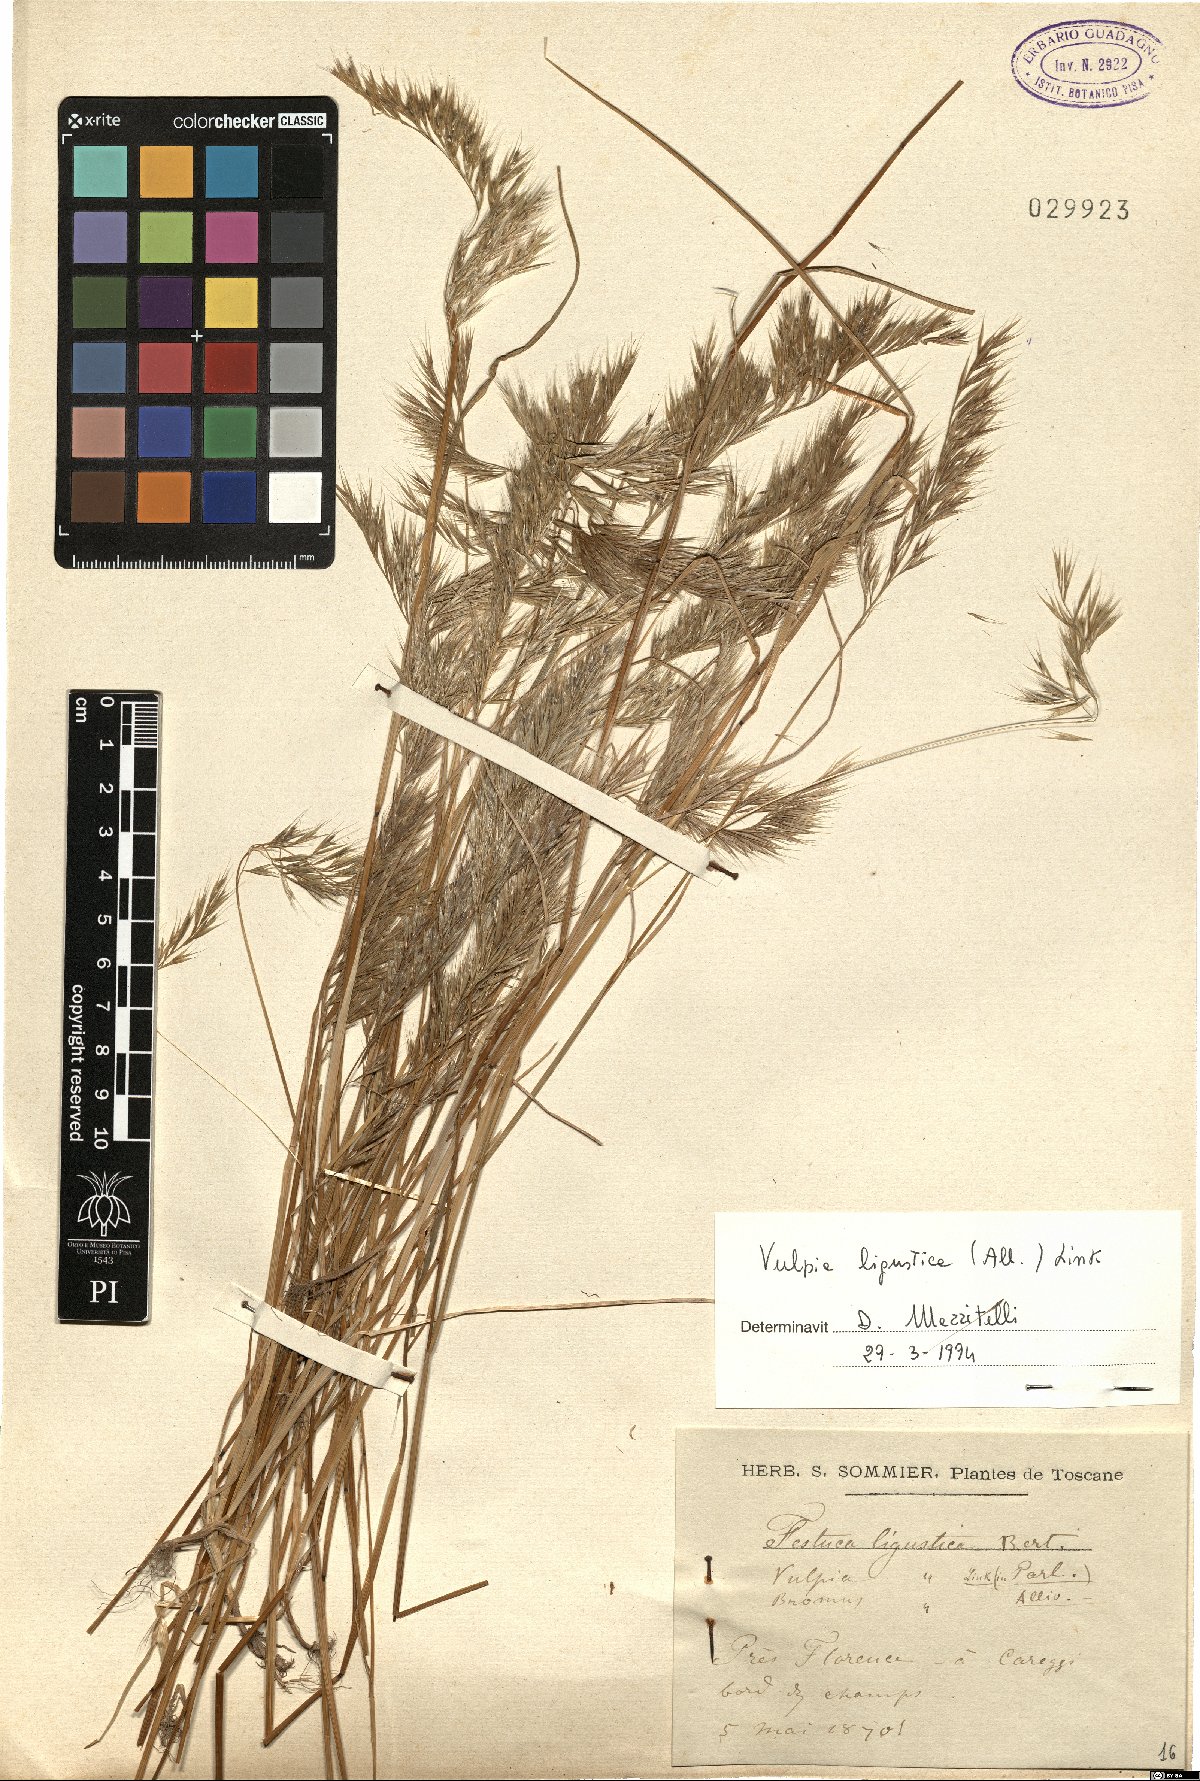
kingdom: Plantae
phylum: Tracheophyta
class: Liliopsida
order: Poales
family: Poaceae
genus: Festuca
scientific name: Festuca ligustica
